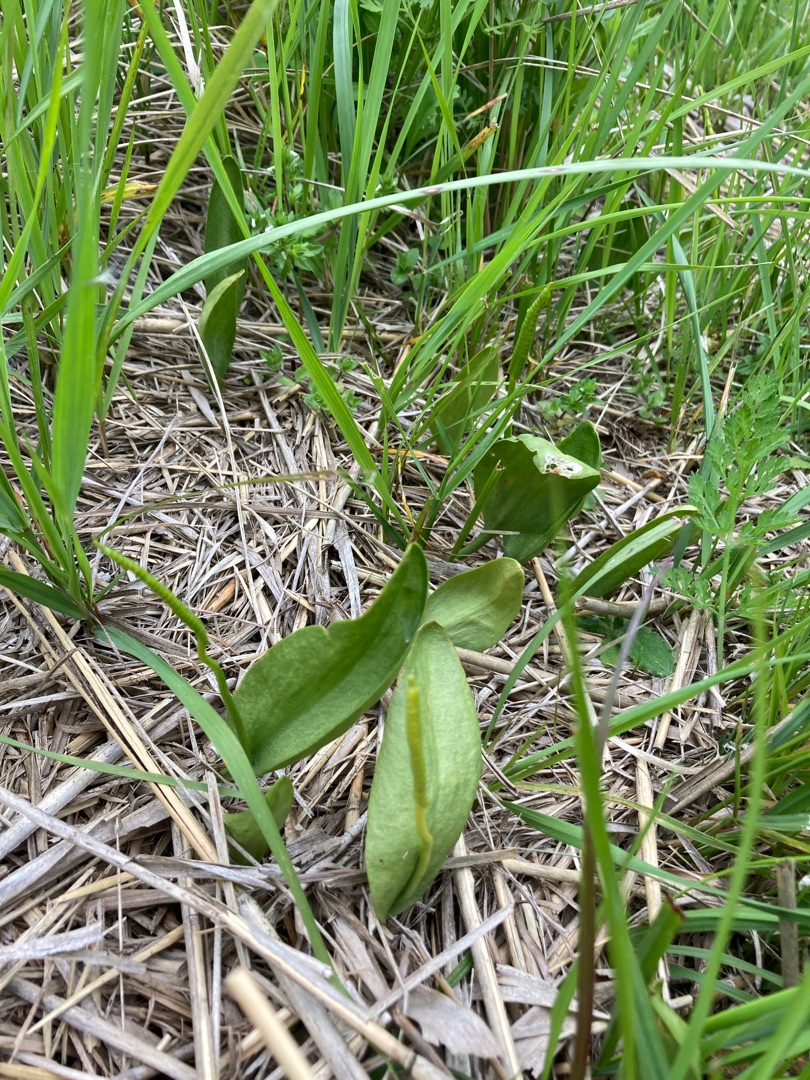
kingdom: Plantae
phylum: Tracheophyta
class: Polypodiopsida
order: Ophioglossales
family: Ophioglossaceae
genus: Ophioglossum
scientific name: Ophioglossum vulgatum
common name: Slangetunge
